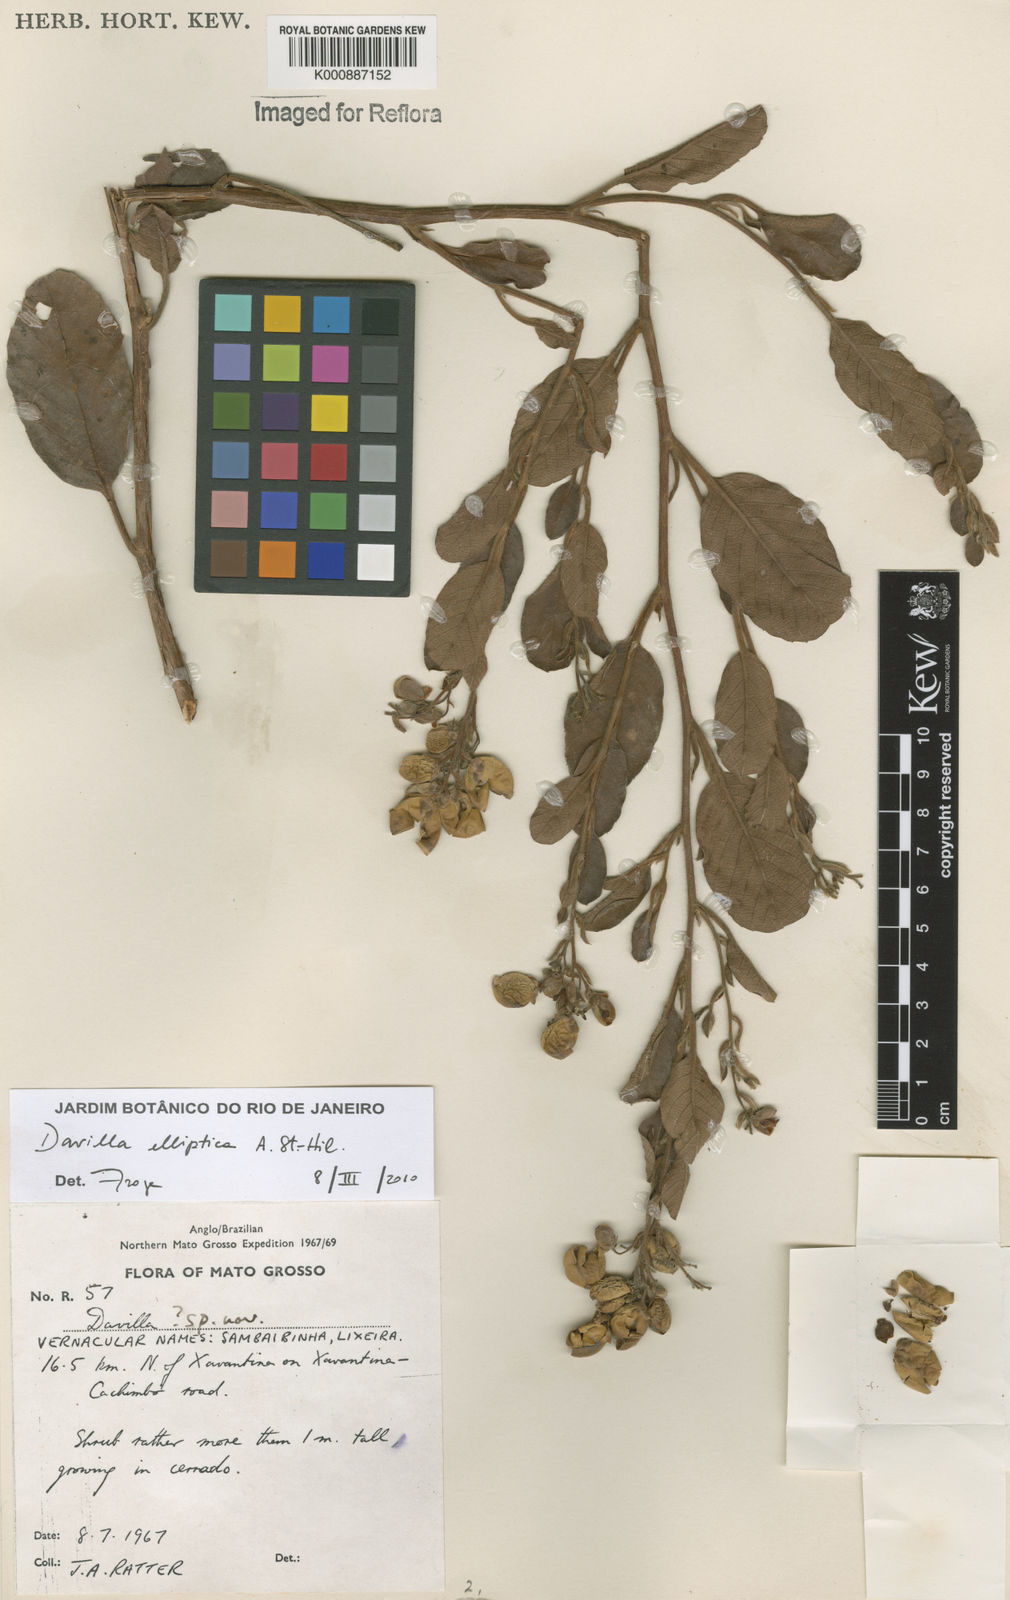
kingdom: Plantae
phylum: Tracheophyta
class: Magnoliopsida
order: Dilleniales
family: Dilleniaceae
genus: Davilla
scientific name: Davilla elliptica
